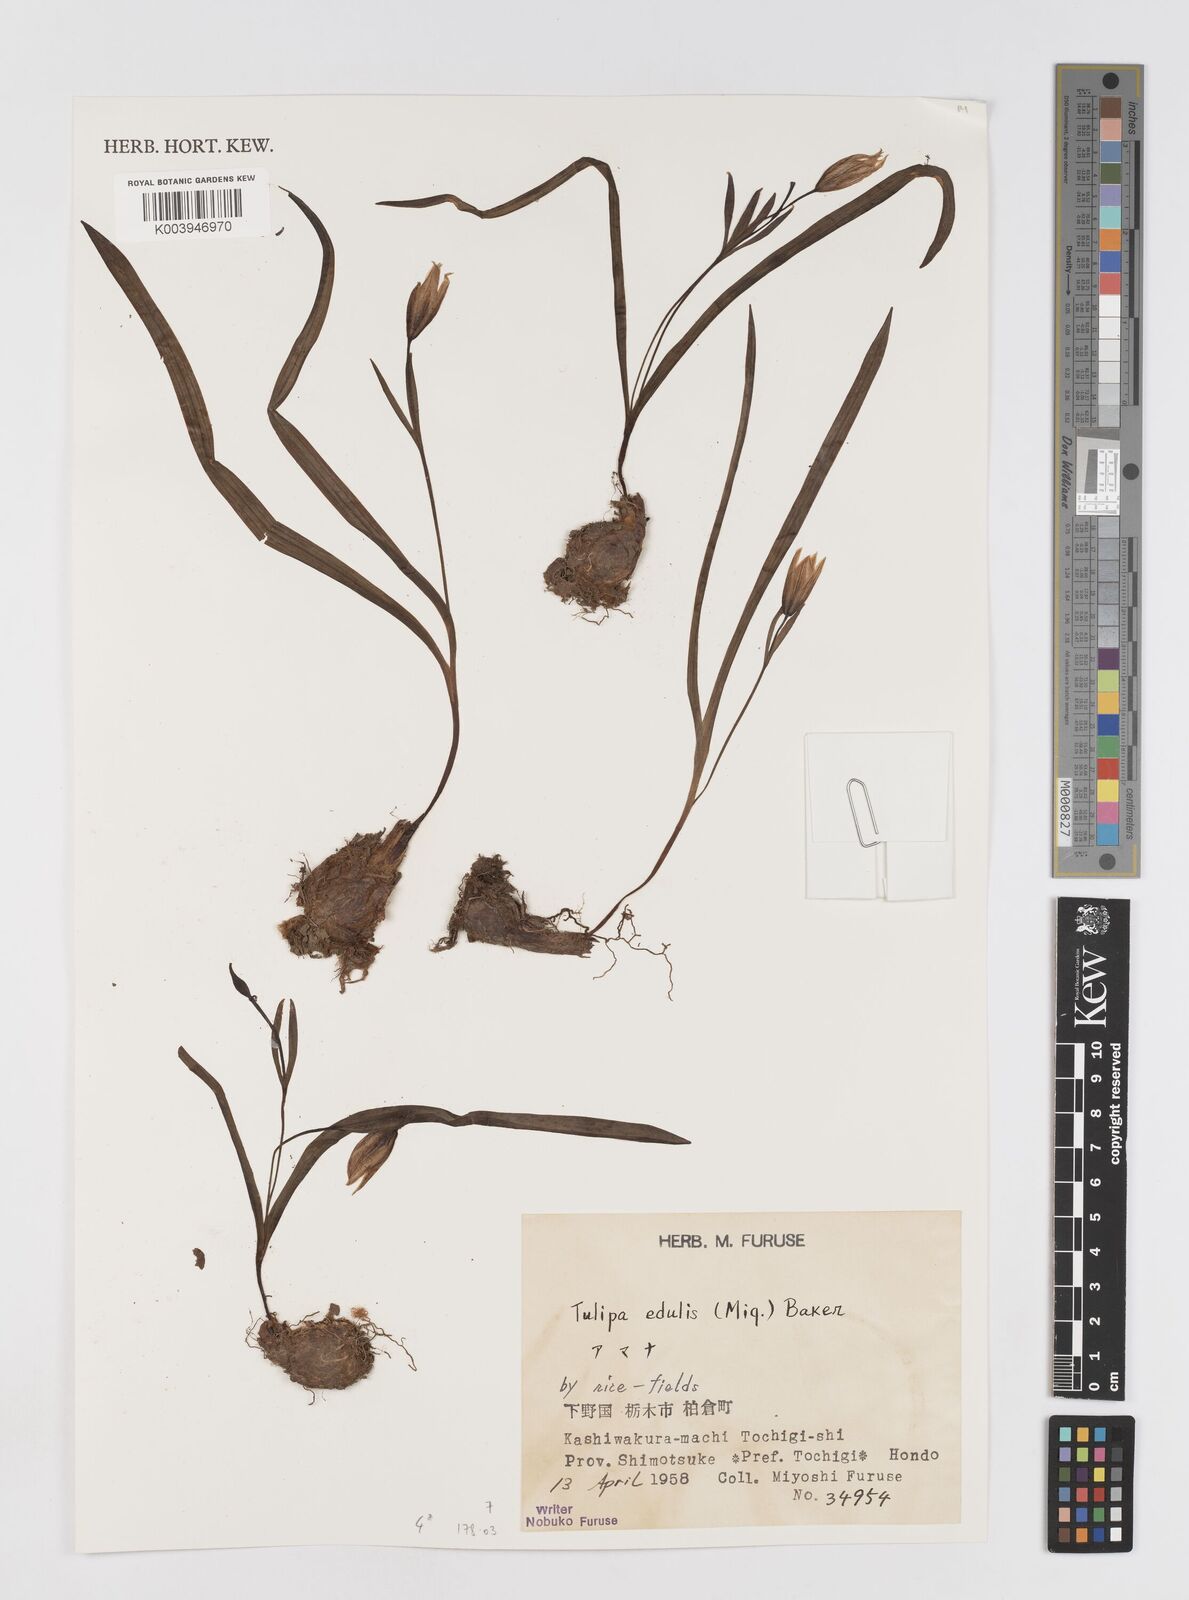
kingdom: Plantae
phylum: Tracheophyta
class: Liliopsida
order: Liliales
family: Liliaceae
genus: Amana
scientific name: Amana edulis
